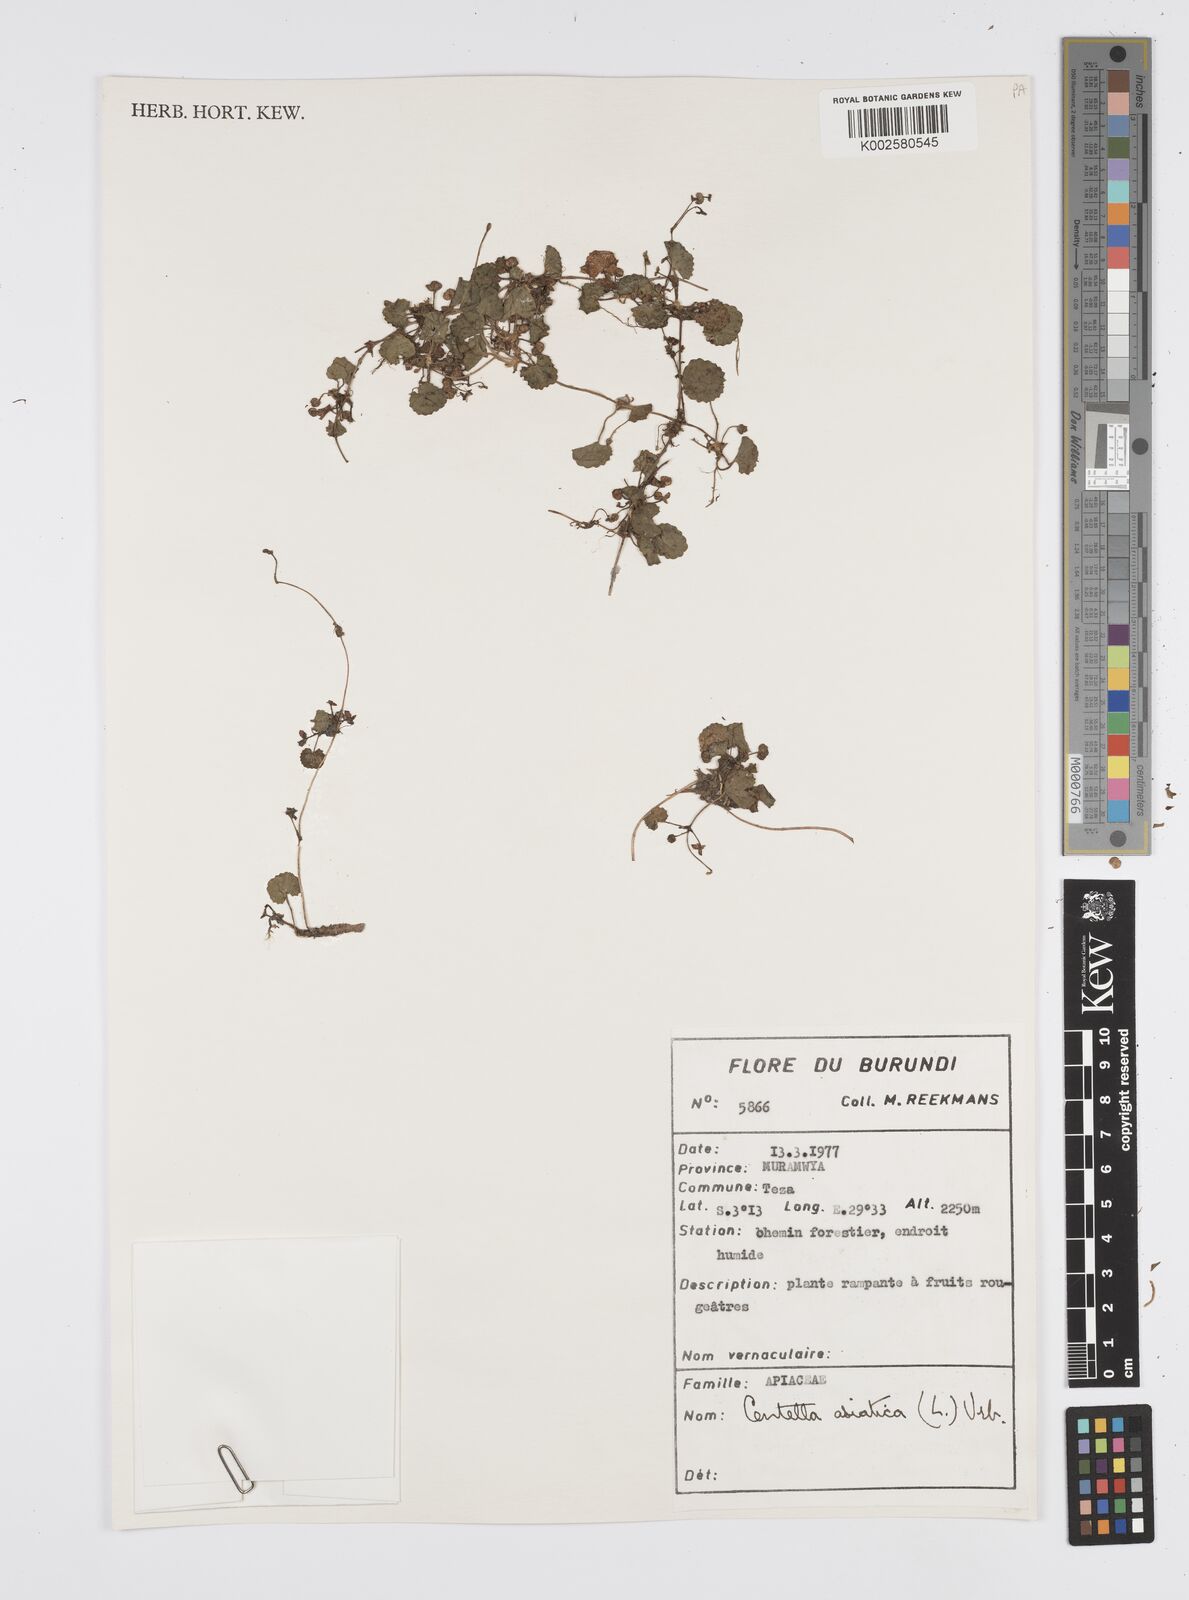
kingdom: Plantae
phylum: Tracheophyta
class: Magnoliopsida
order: Apiales
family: Apiaceae
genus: Centella
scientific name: Centella asiatica
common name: Spadeleaf
